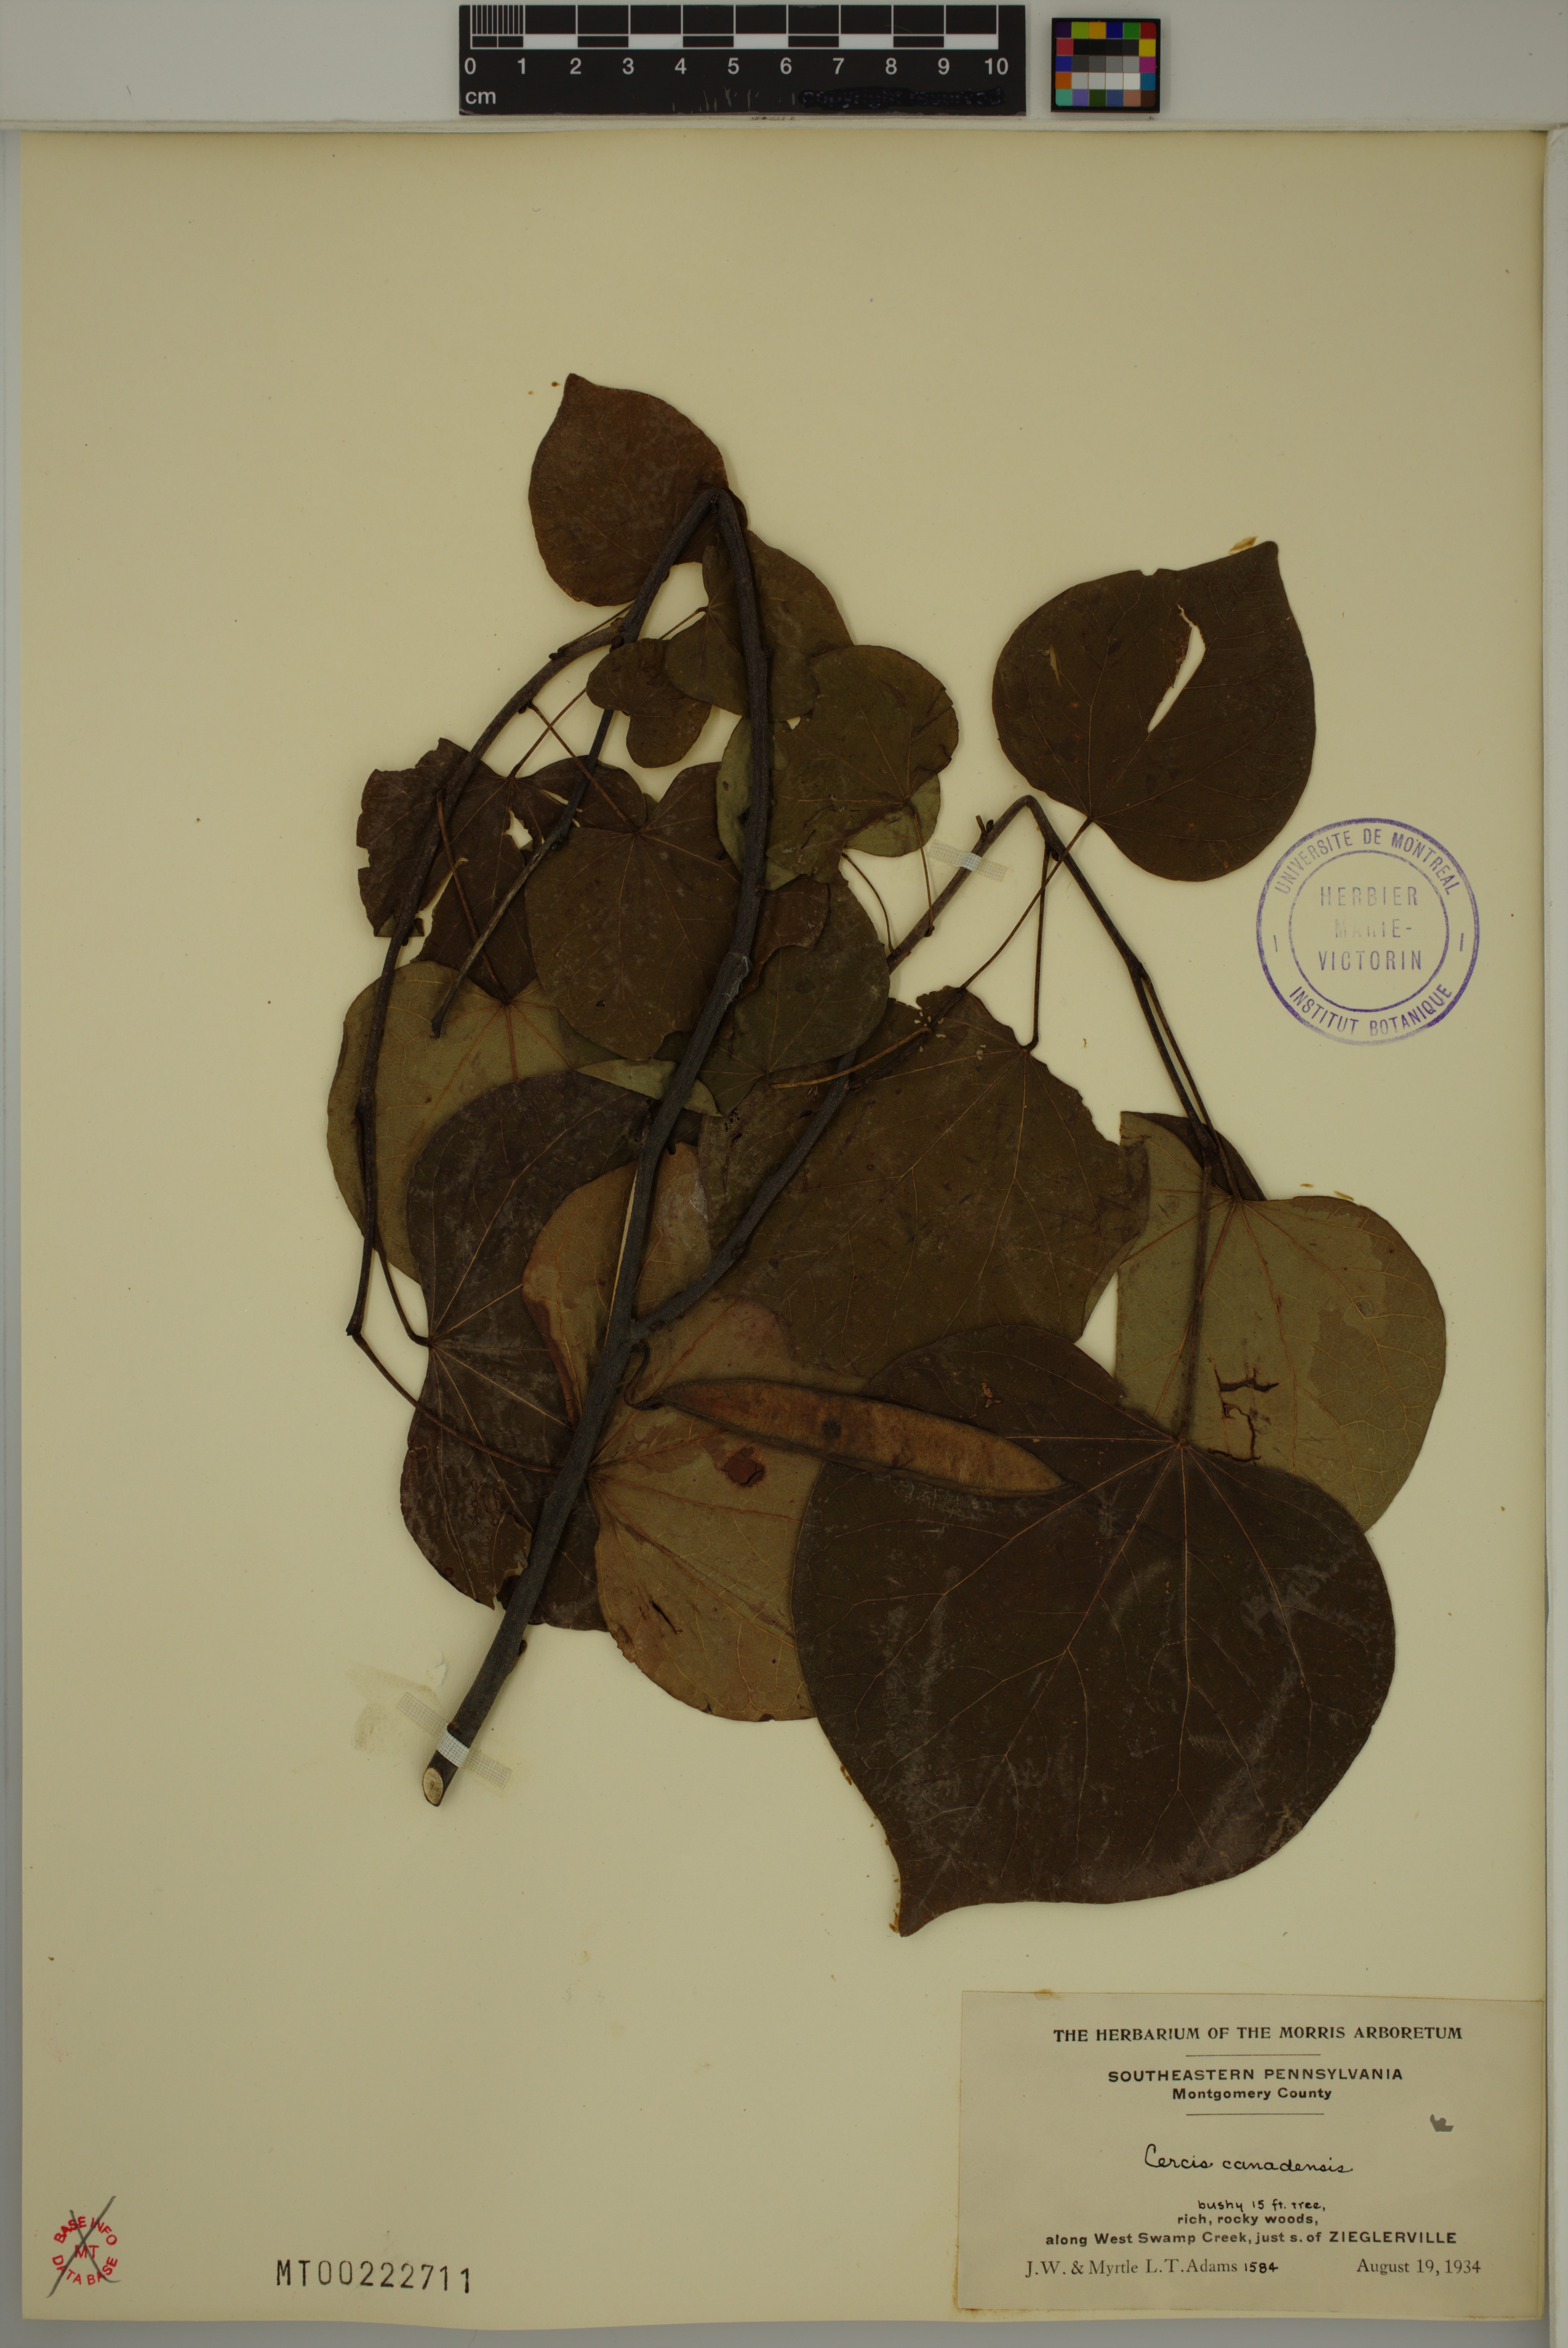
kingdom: Plantae
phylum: Tracheophyta
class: Magnoliopsida
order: Fabales
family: Fabaceae
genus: Cercis
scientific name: Cercis canadensis
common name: Eastern redbud
